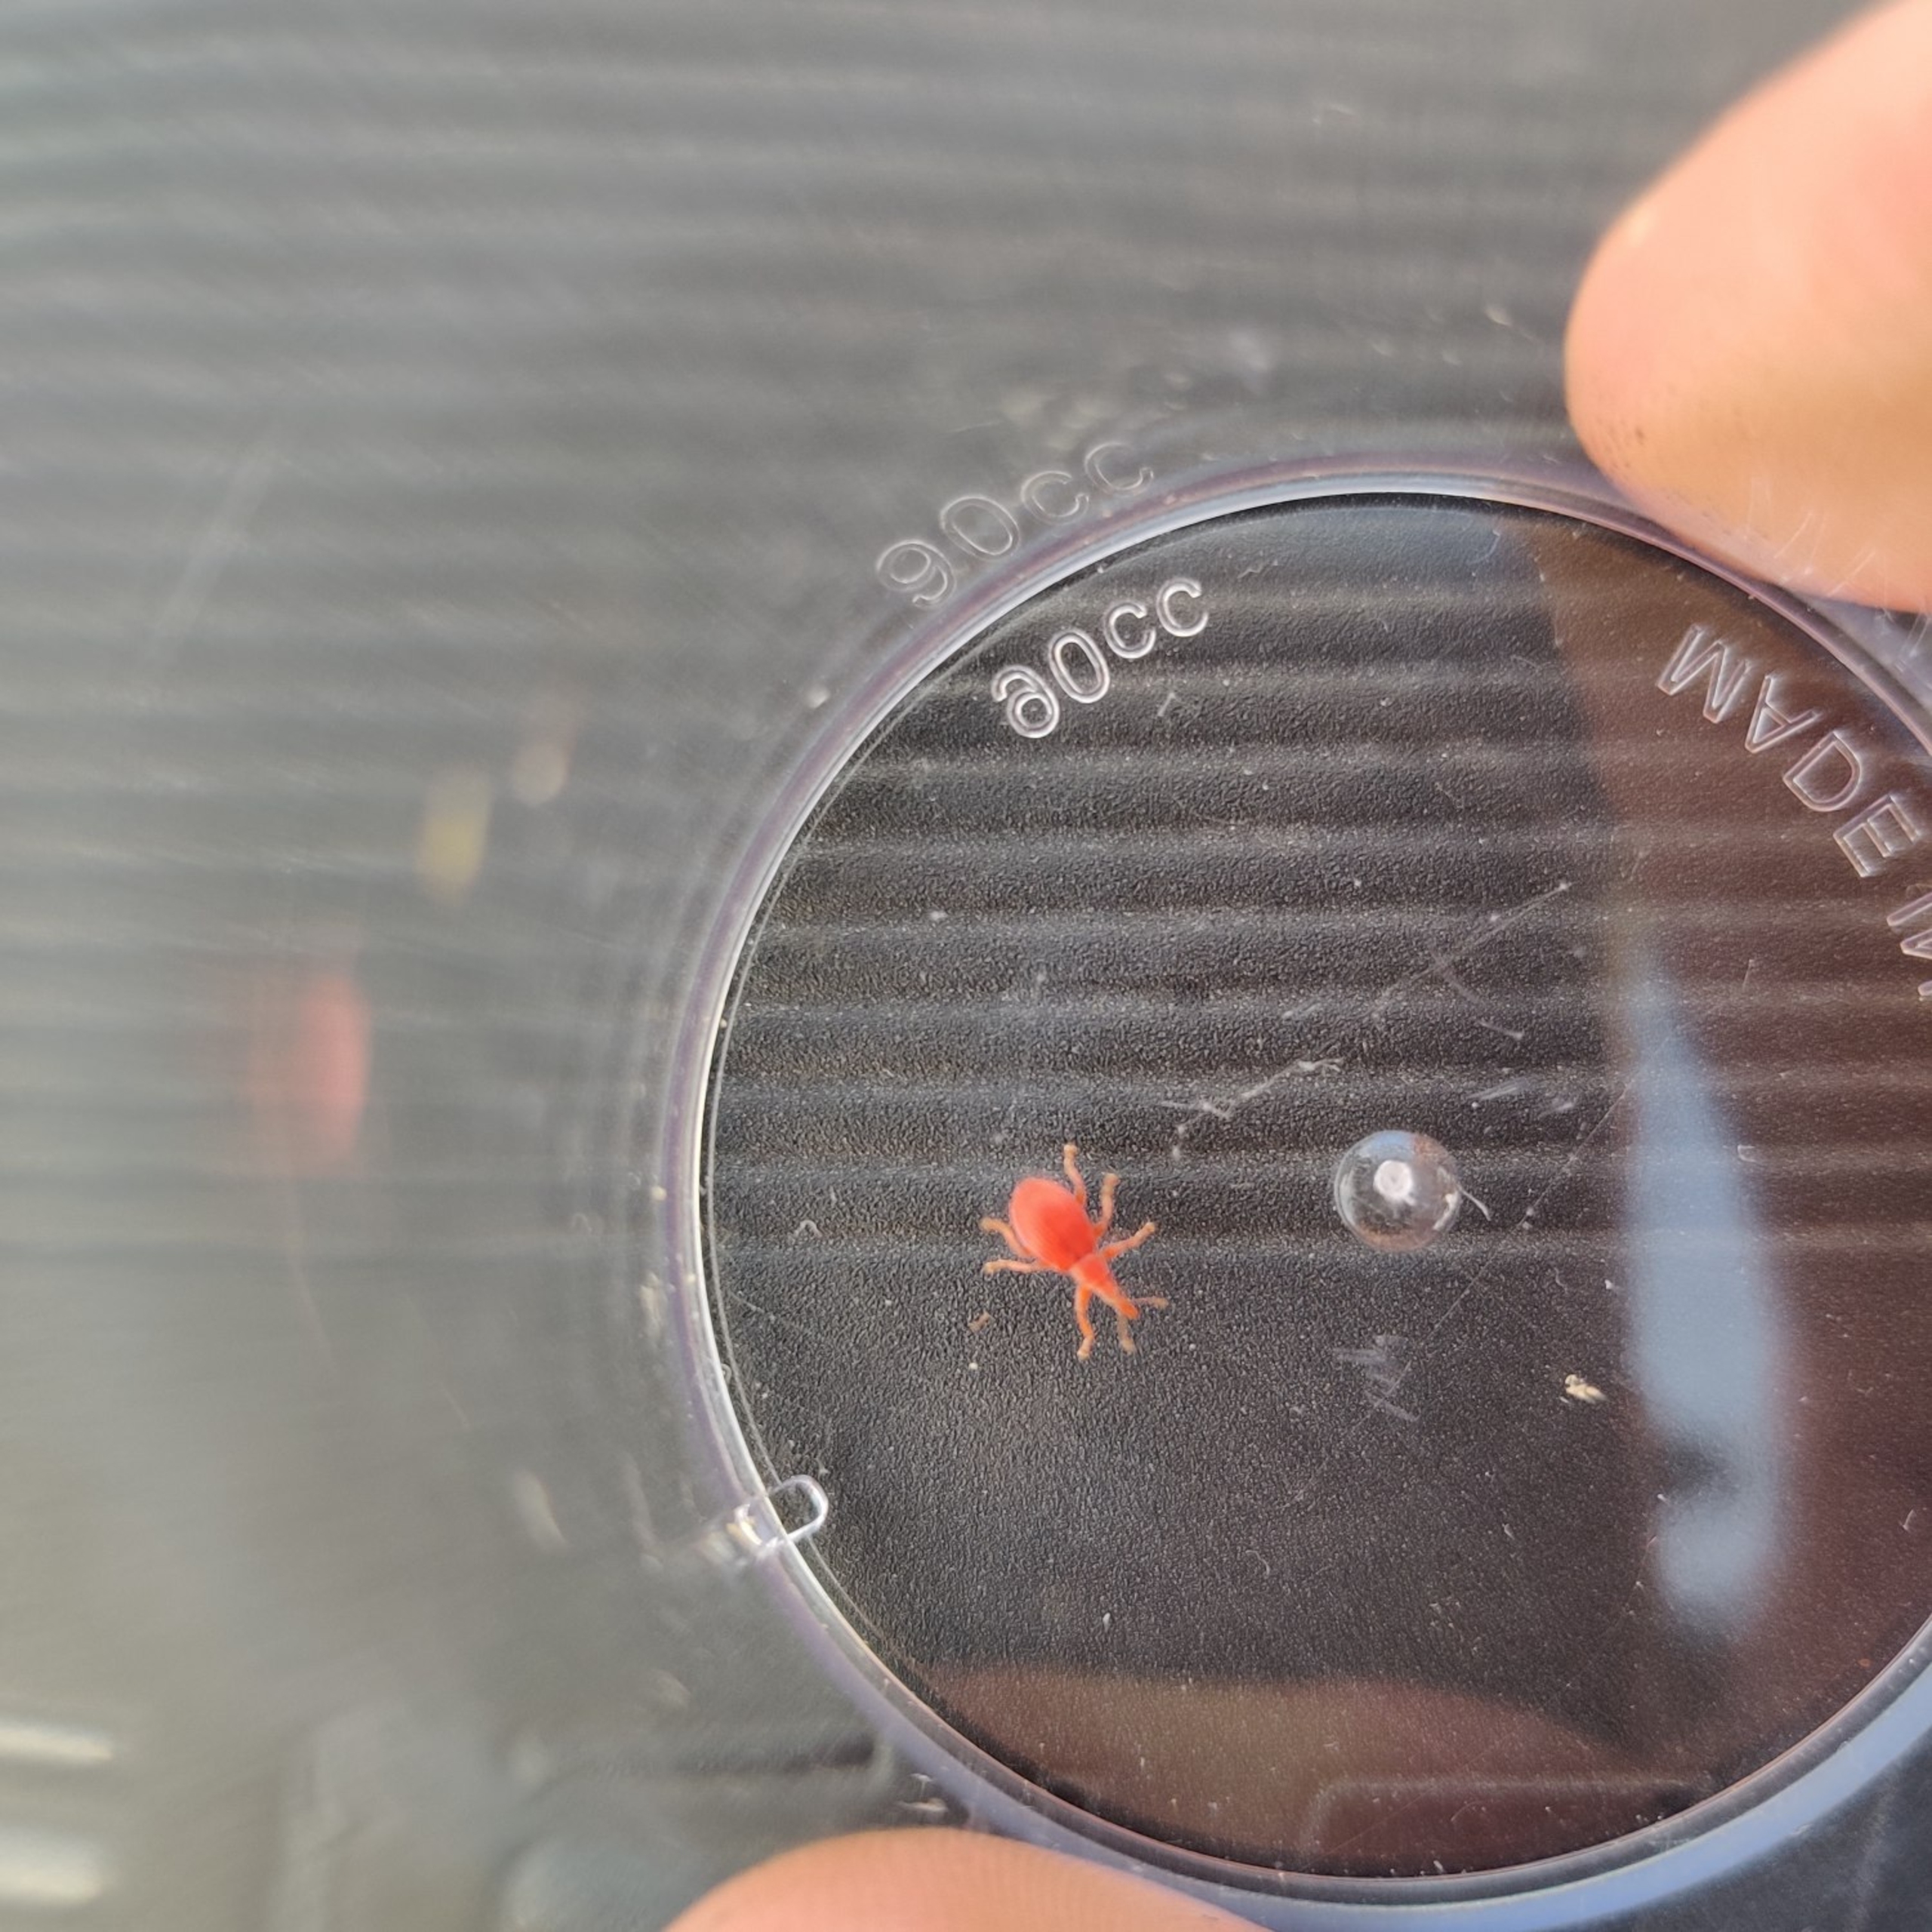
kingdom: Animalia
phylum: Arthropoda
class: Insecta
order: Coleoptera
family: Apionidae
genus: Apion
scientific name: Apion frumentarium
